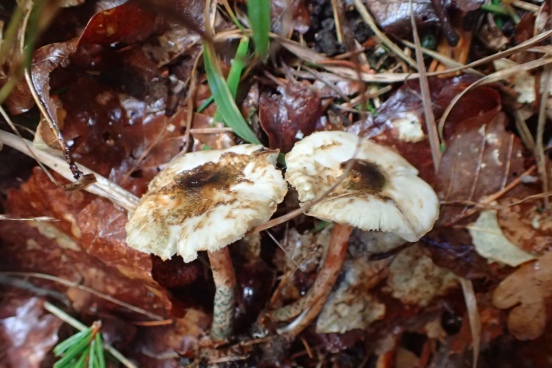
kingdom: Fungi
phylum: Basidiomycota
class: Agaricomycetes
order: Agaricales
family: Agaricaceae
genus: Lepiota
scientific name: Lepiota grangei
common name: grønskællet parasolhat
